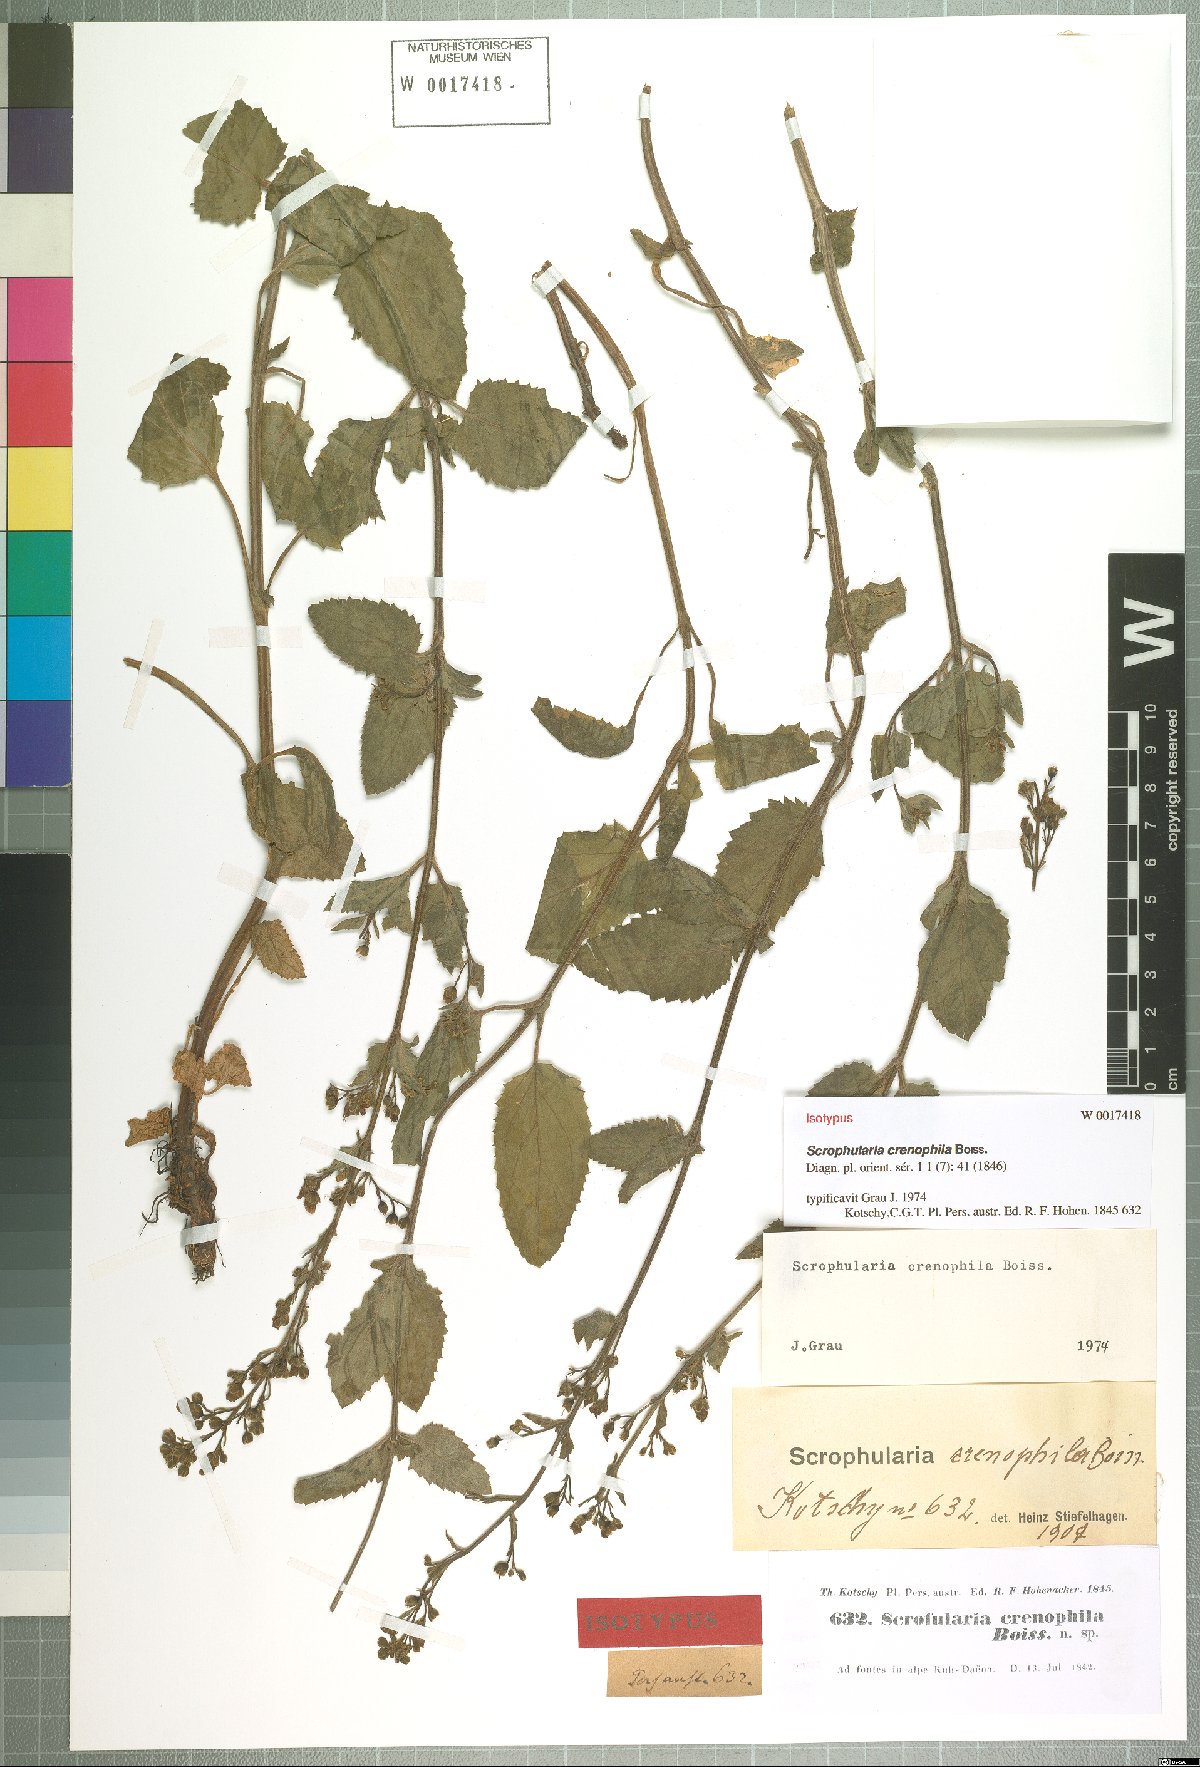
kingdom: Plantae
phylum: Tracheophyta
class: Magnoliopsida
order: Lamiales
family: Scrophulariaceae
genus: Scrophularia
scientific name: Scrophularia crenophila
